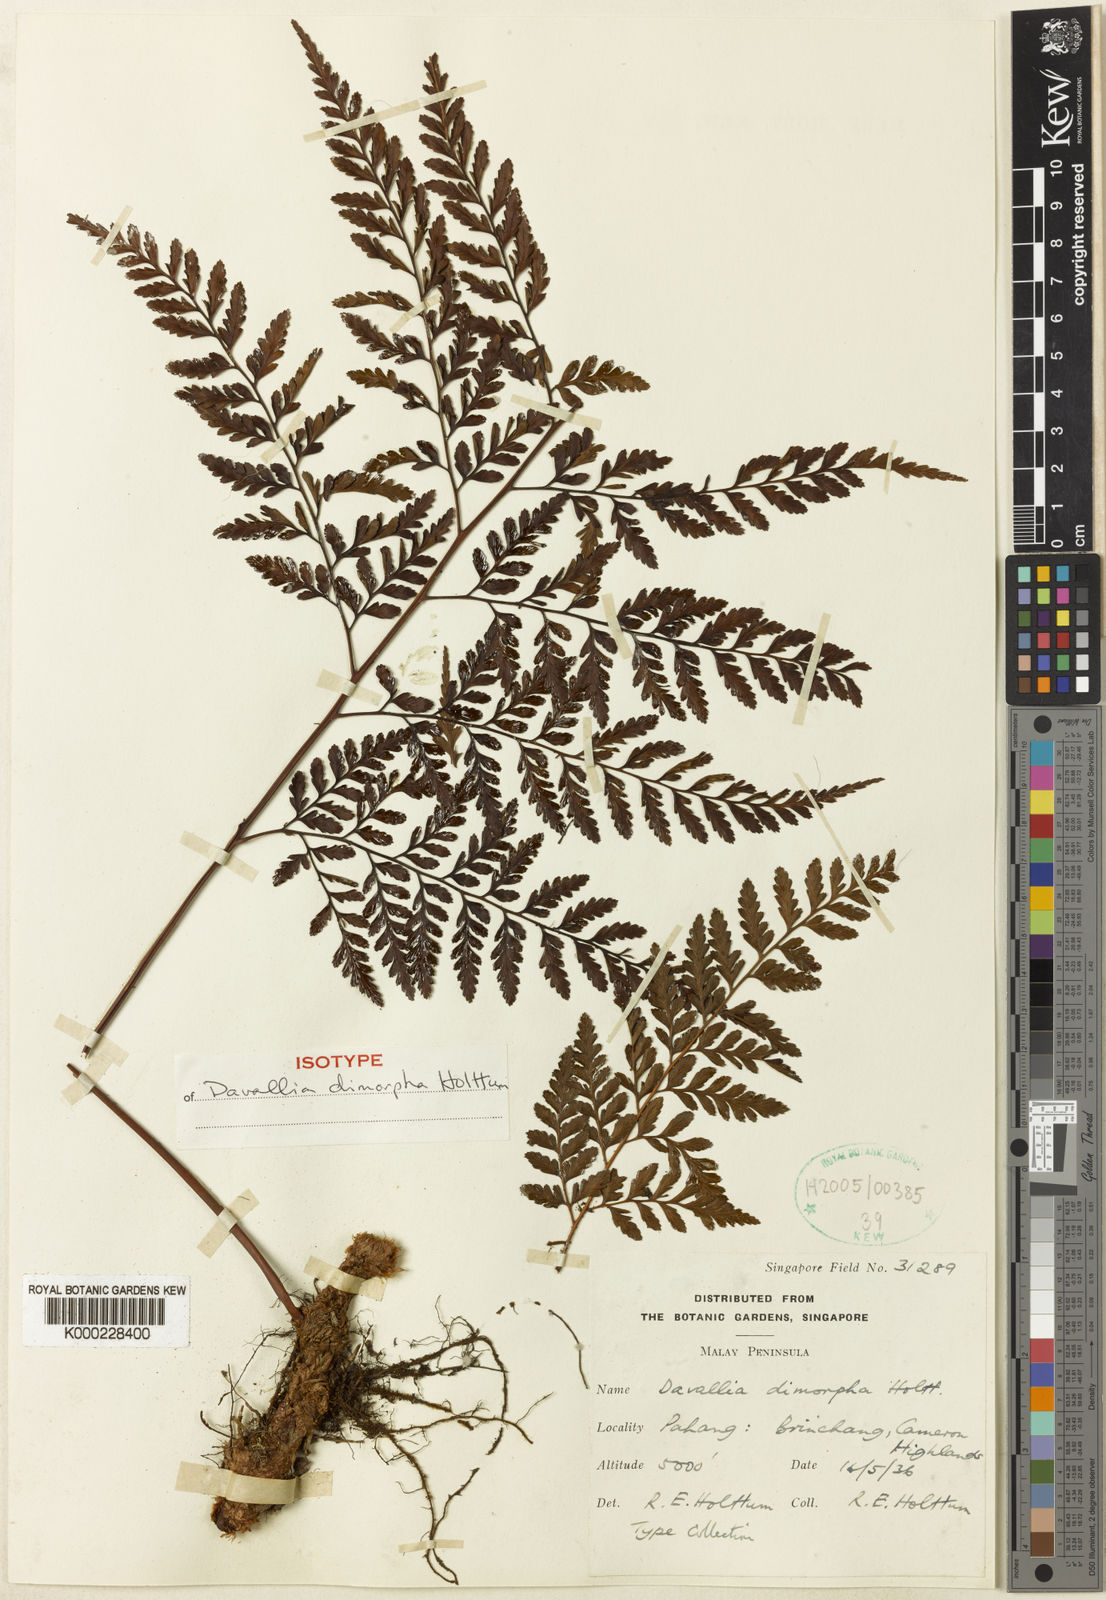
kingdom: Plantae
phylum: Tracheophyta
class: Polypodiopsida
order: Polypodiales
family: Davalliaceae
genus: Davallia
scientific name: Davallia dimorpha
